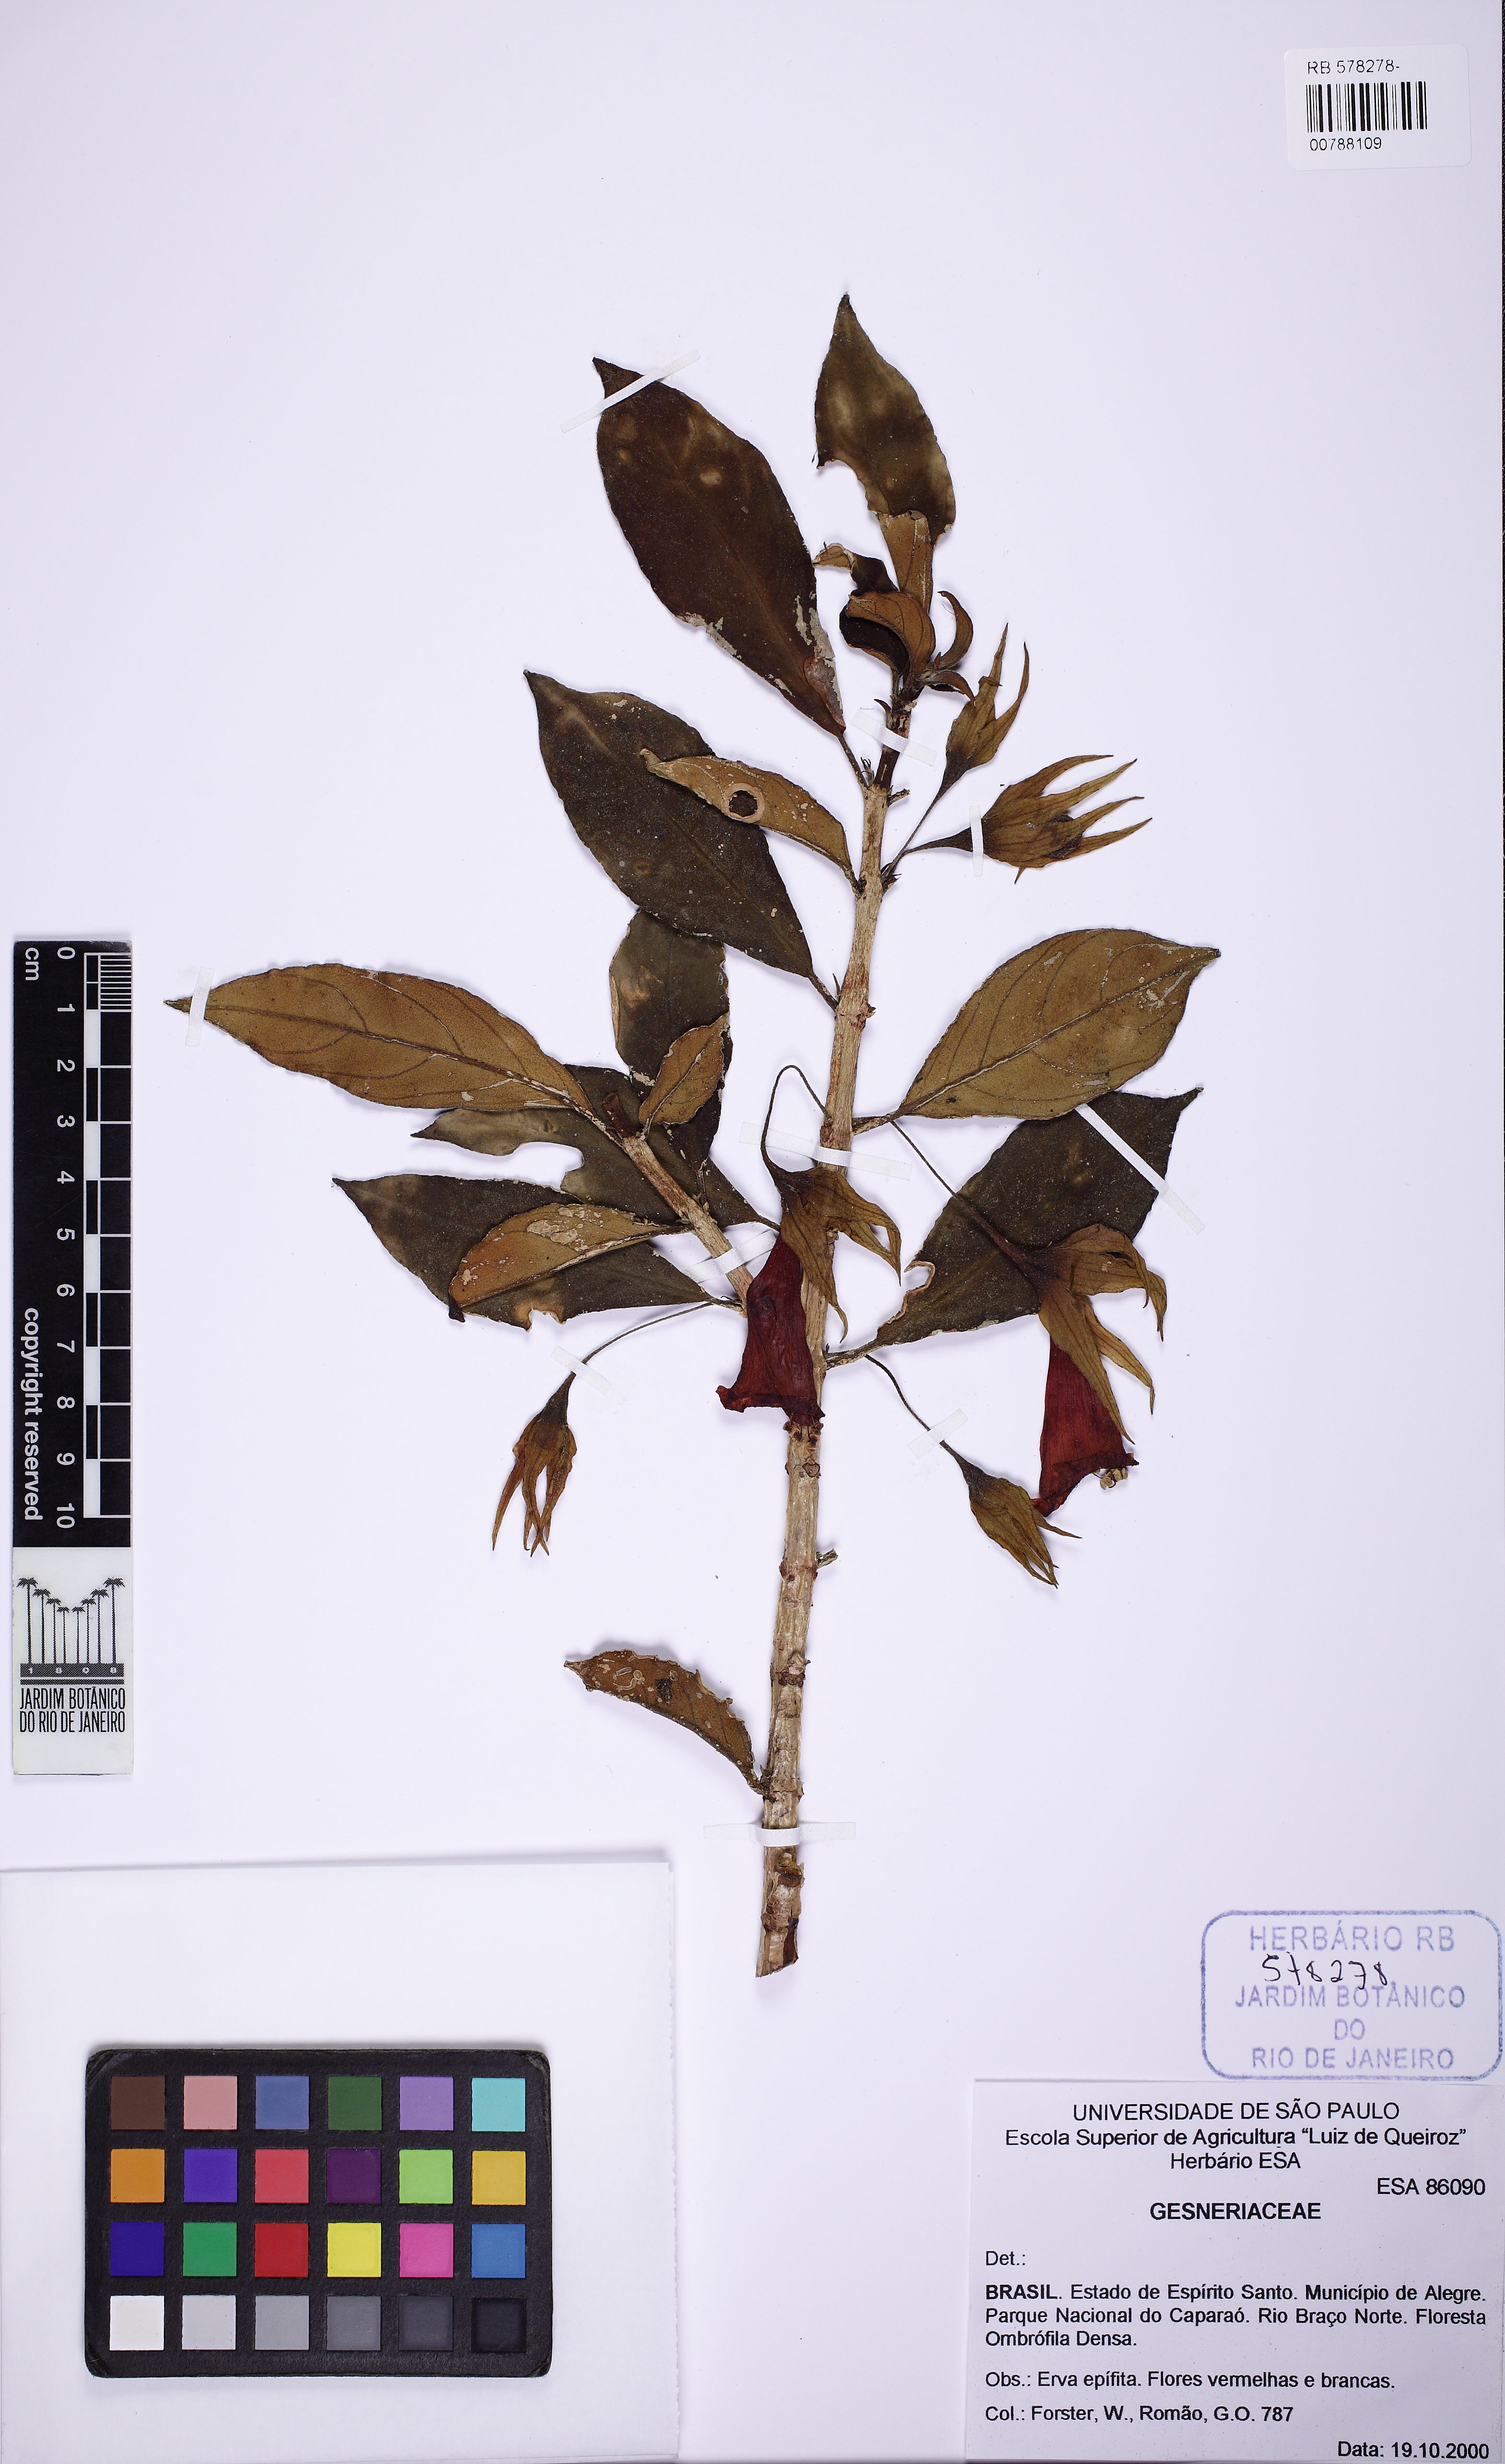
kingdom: Plantae
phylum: Tracheophyta
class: Magnoliopsida
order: Lamiales
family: Gesneriaceae
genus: Nematanthus
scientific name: Nematanthus crassifolius
